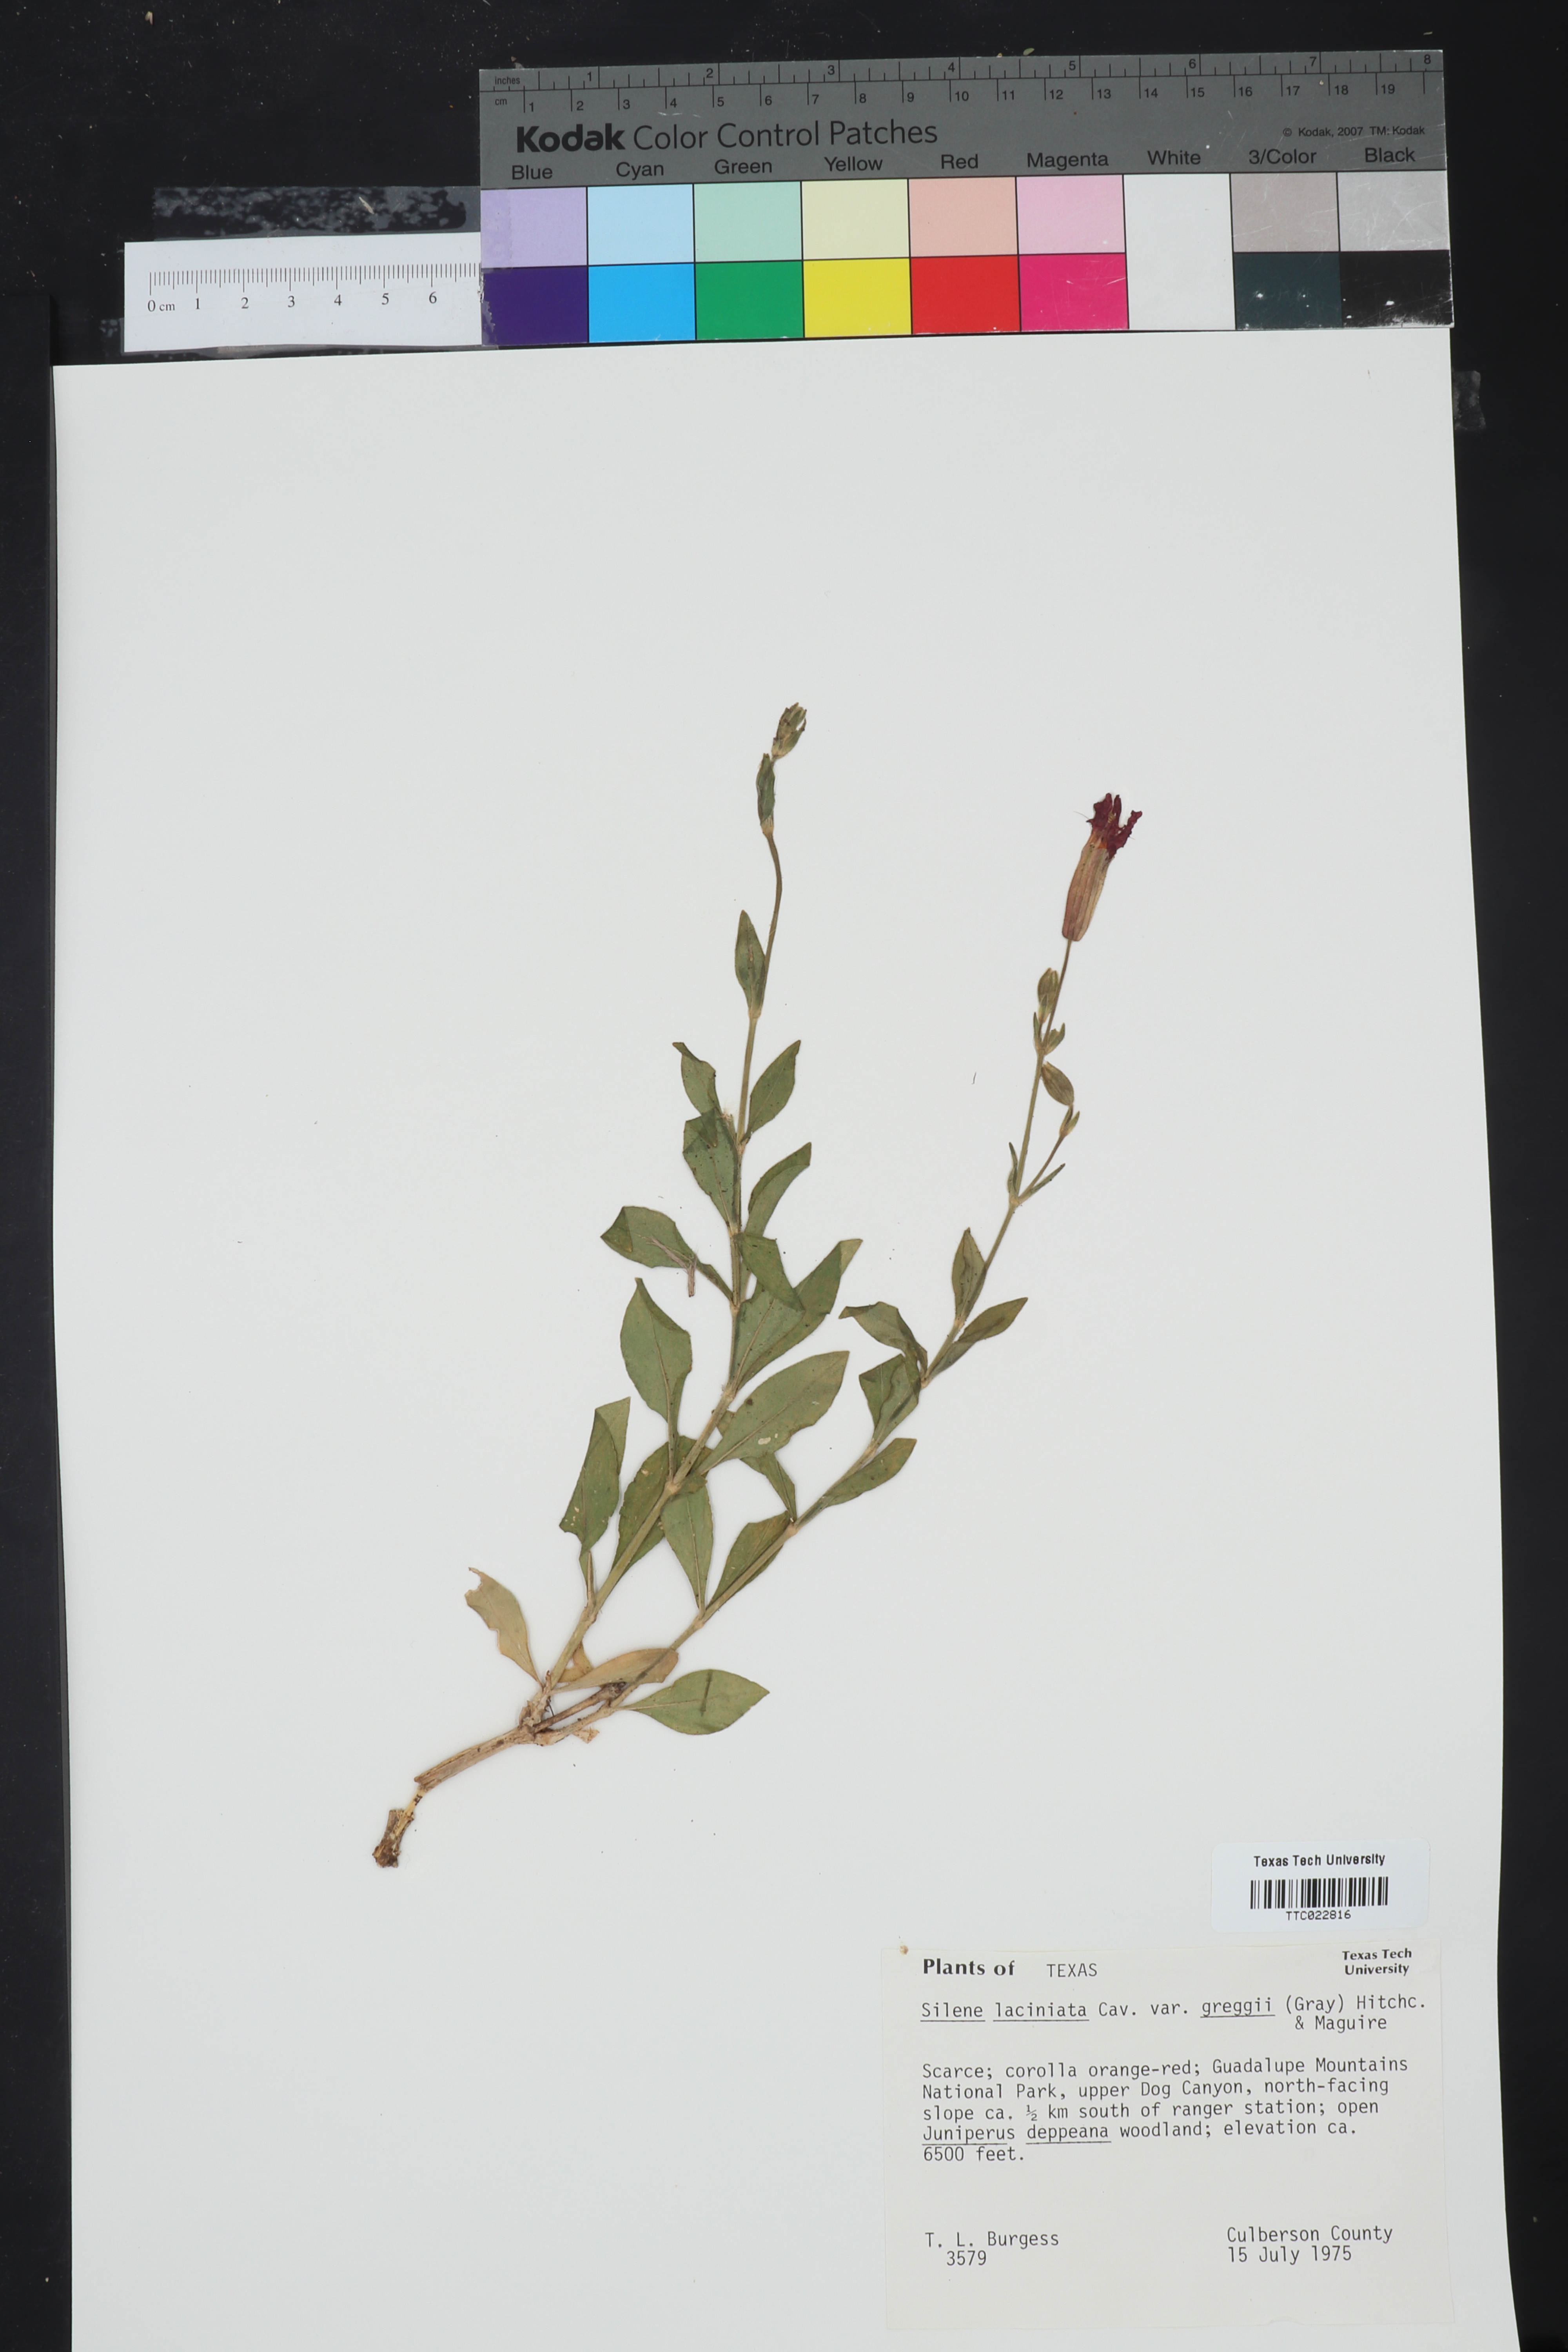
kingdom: Plantae
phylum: Tracheophyta
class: Magnoliopsida
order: Caryophyllales
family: Caryophyllaceae
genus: Silene
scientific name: Silene laciniata
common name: Indian-pink
